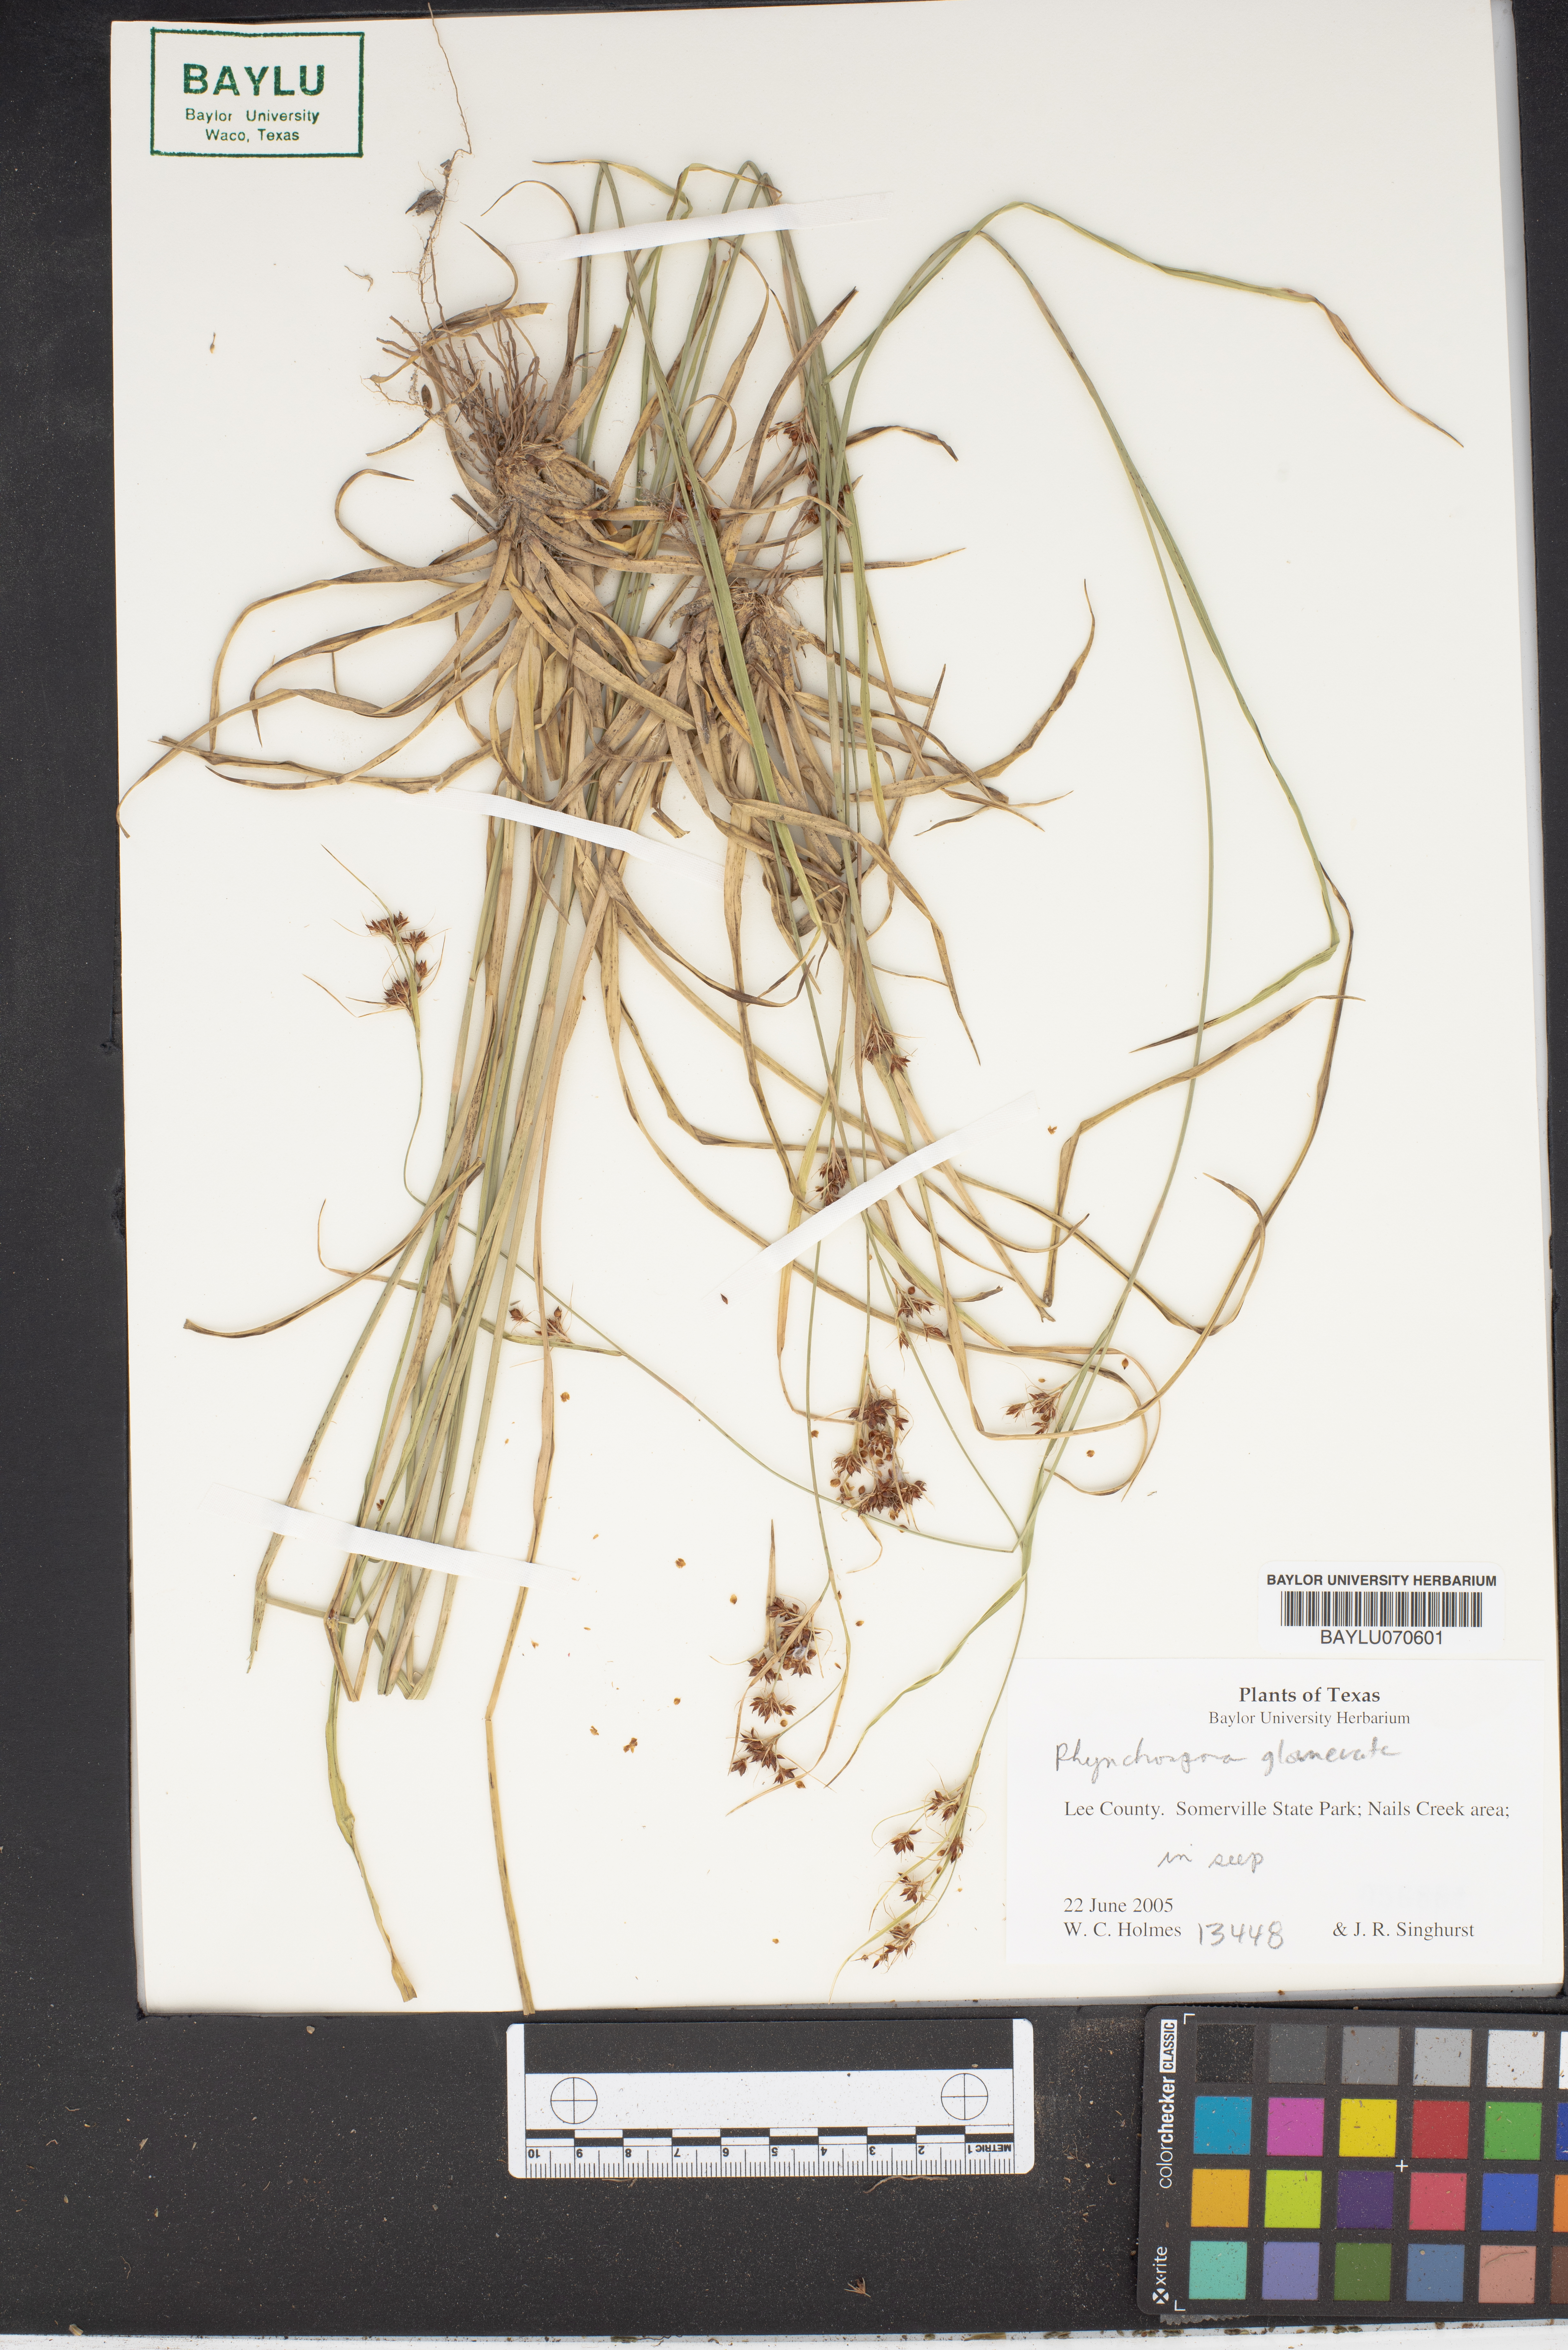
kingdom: Plantae
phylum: Tracheophyta
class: Liliopsida
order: Poales
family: Cyperaceae
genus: Rhynchospora
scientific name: Rhynchospora glomerata
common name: Cluster beak sedge
